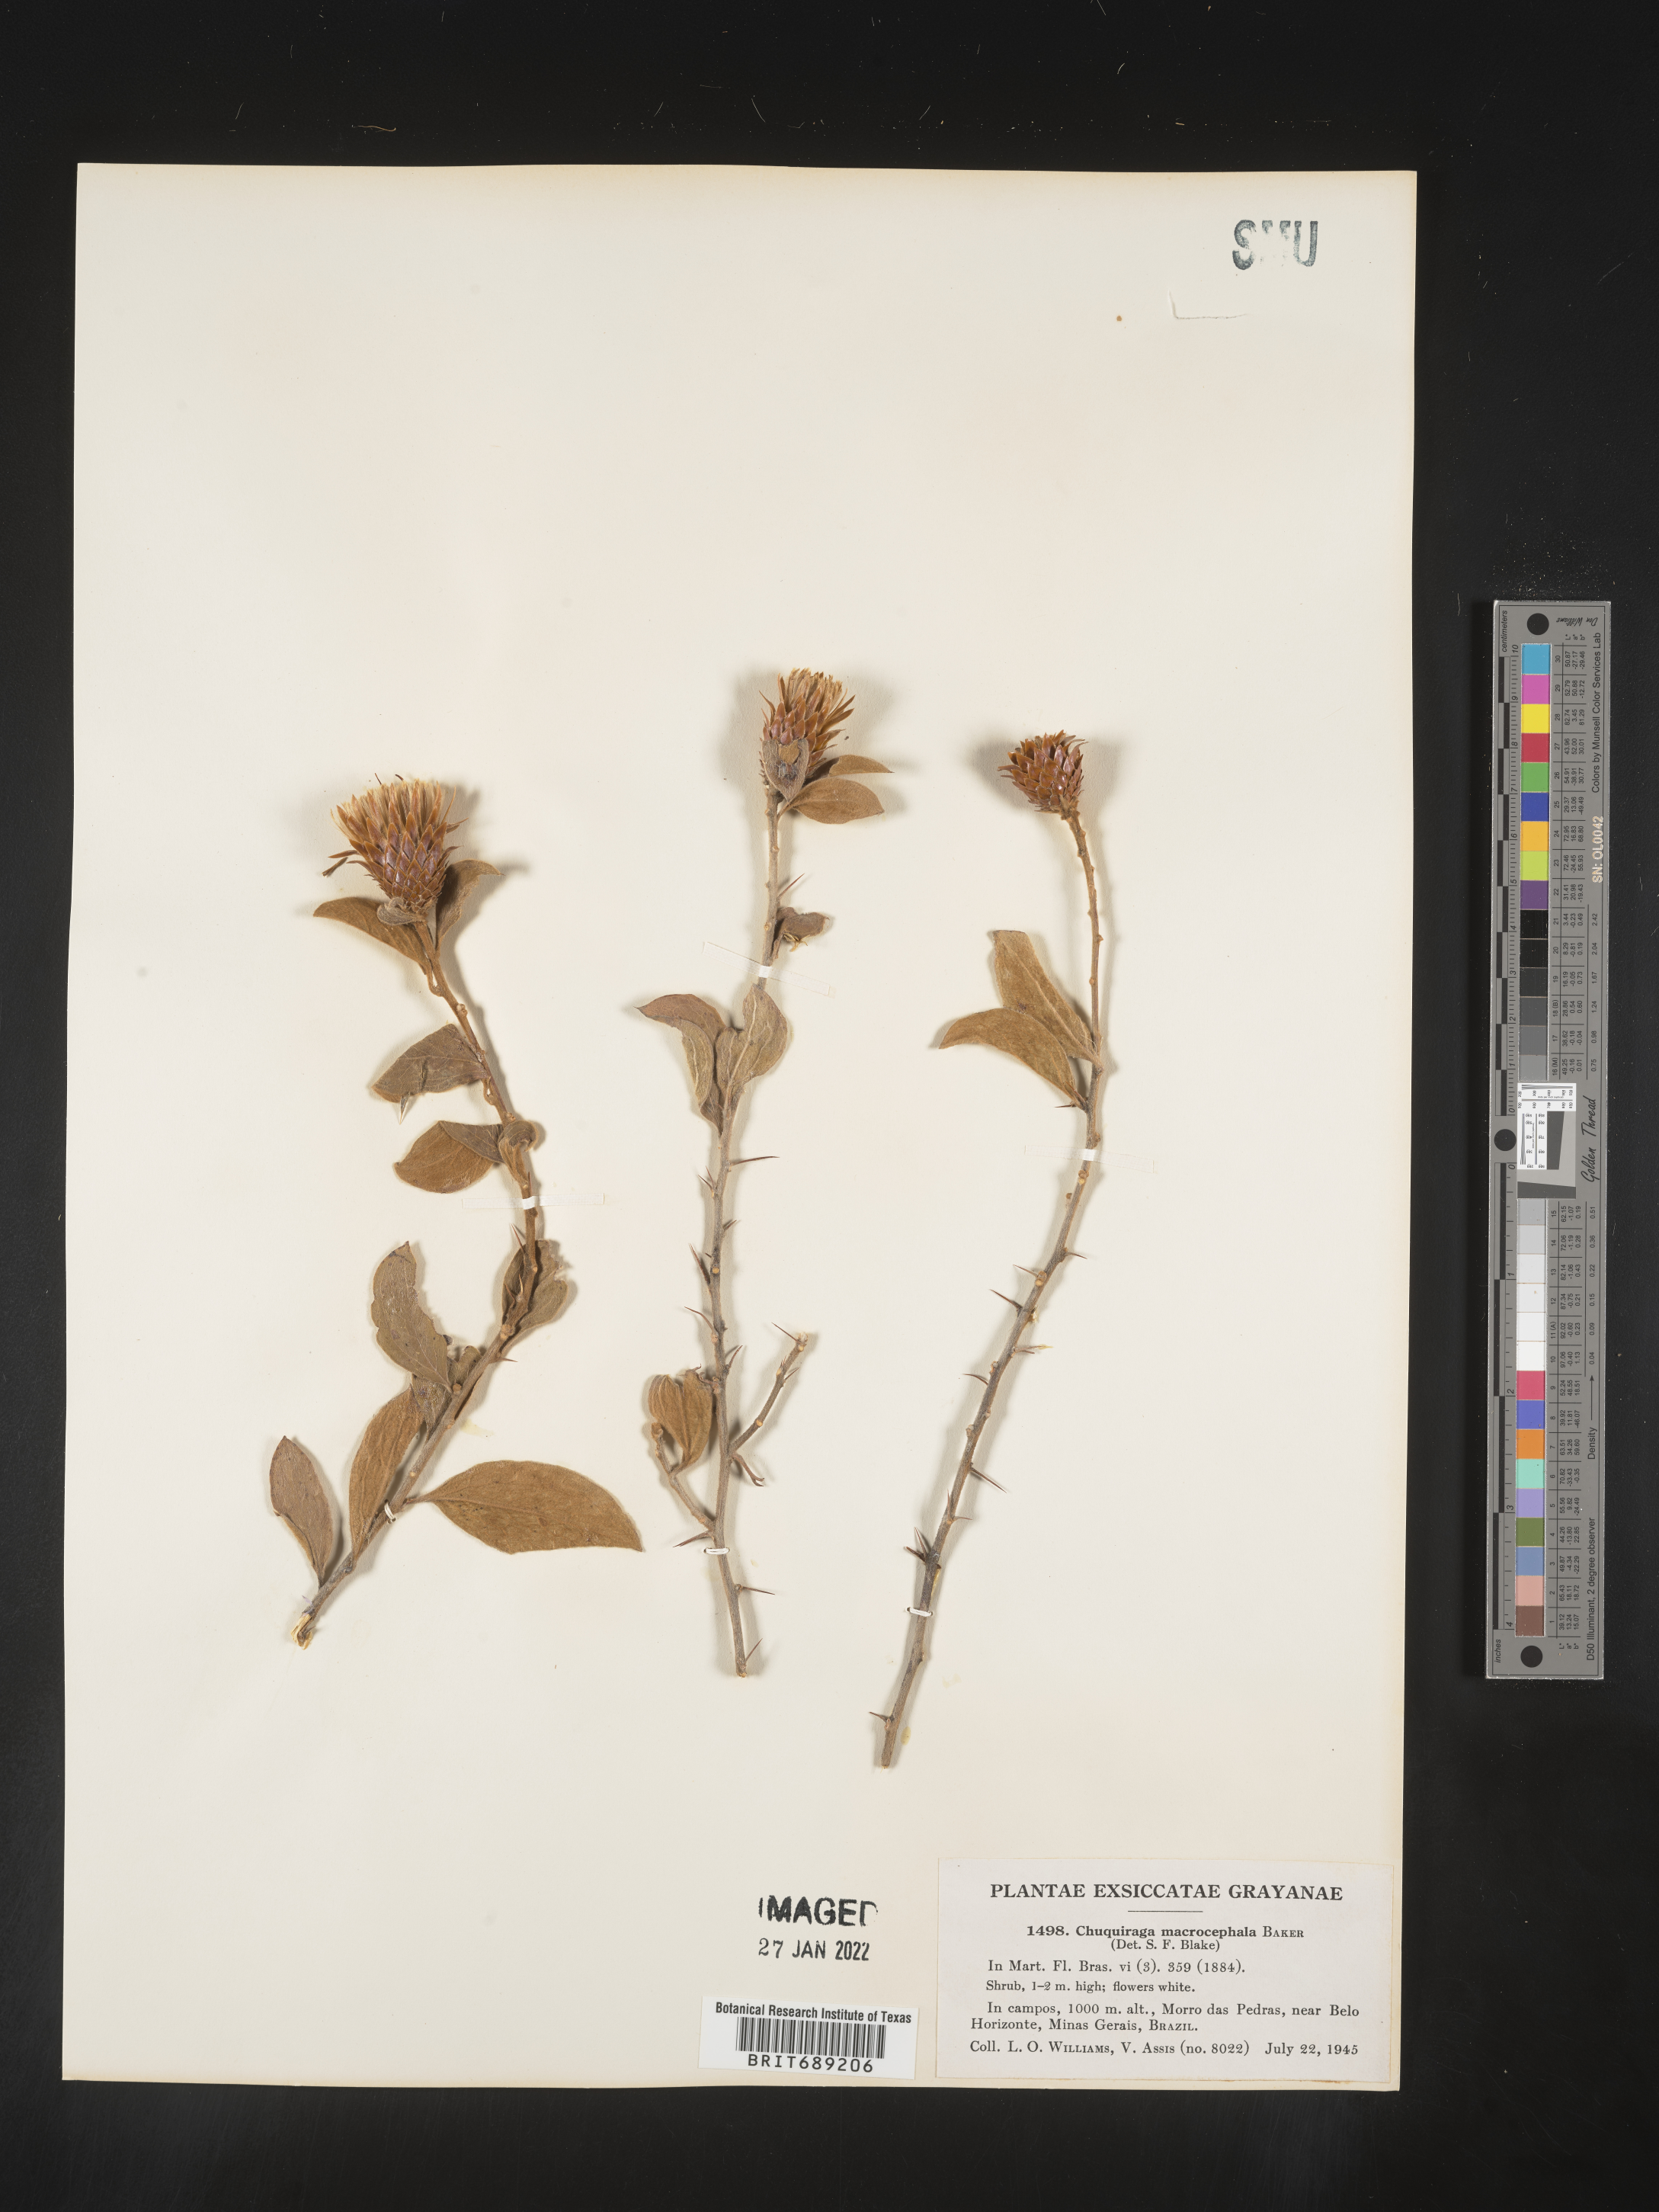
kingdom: Plantae
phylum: Tracheophyta
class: Magnoliopsida
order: Asterales
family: Asteraceae
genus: Chuquiraga
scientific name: Chuquiraga
